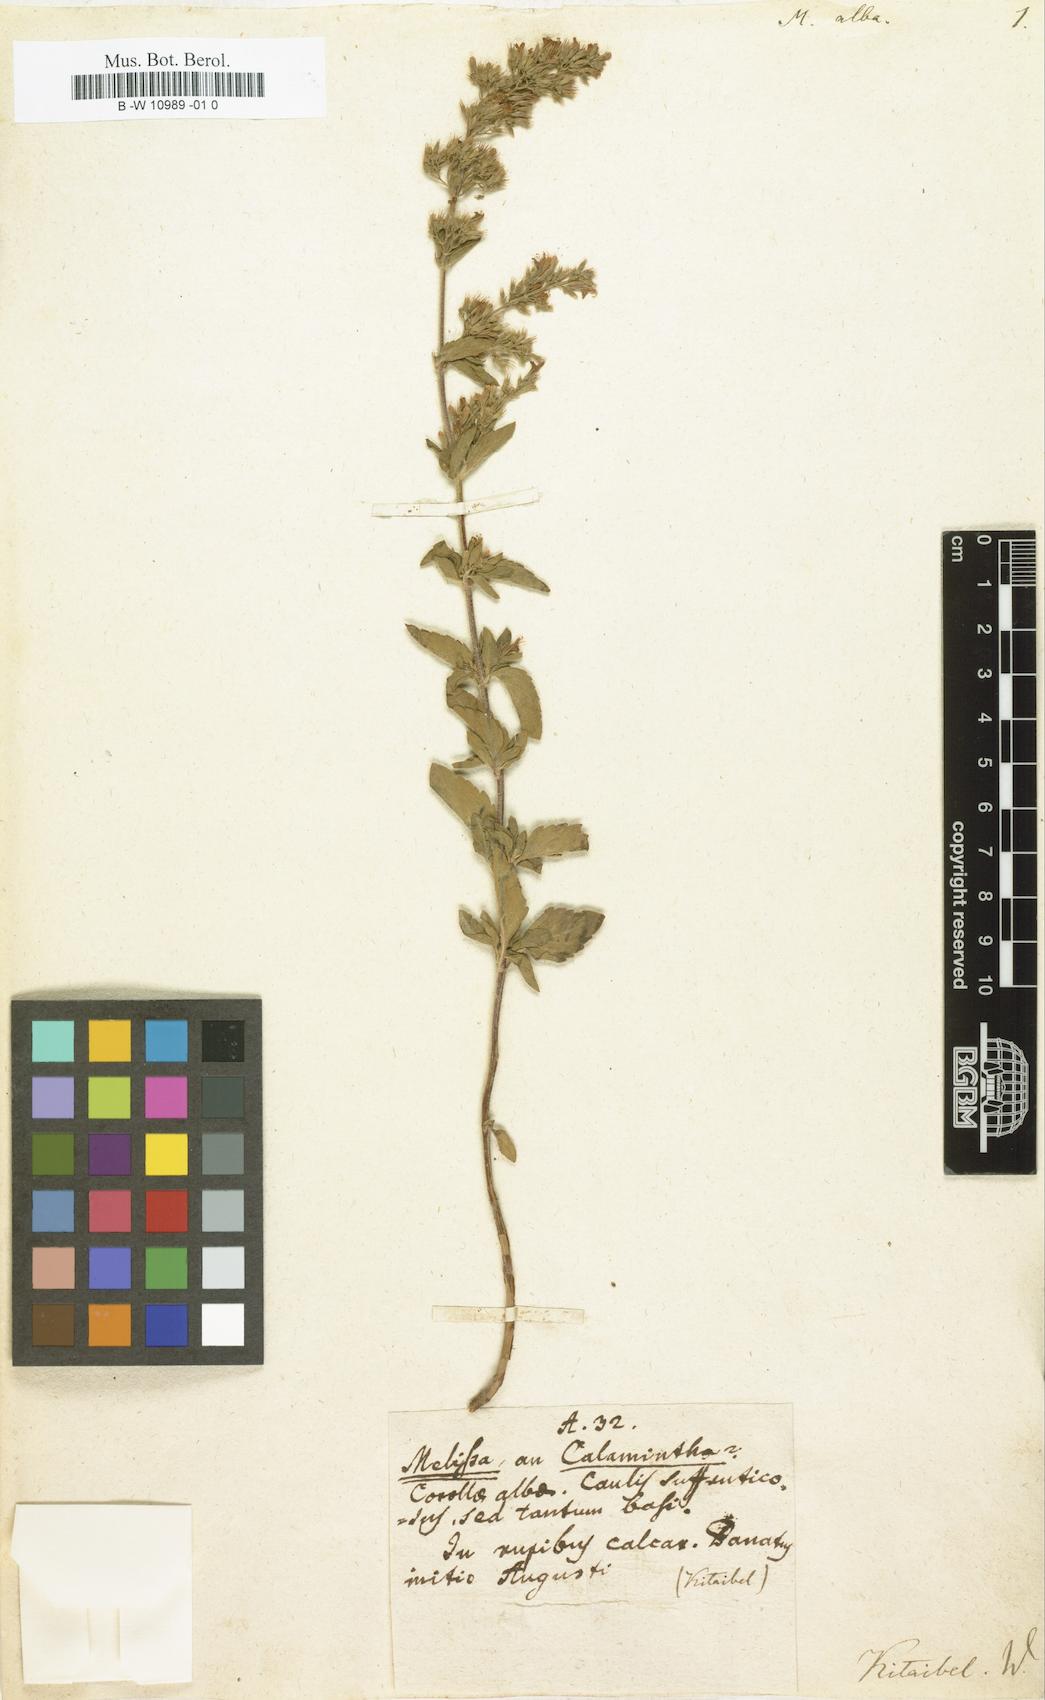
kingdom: Plantae
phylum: Tracheophyta
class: Magnoliopsida
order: Lamiales
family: Lamiaceae
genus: Clinopodium
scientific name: Clinopodium album
